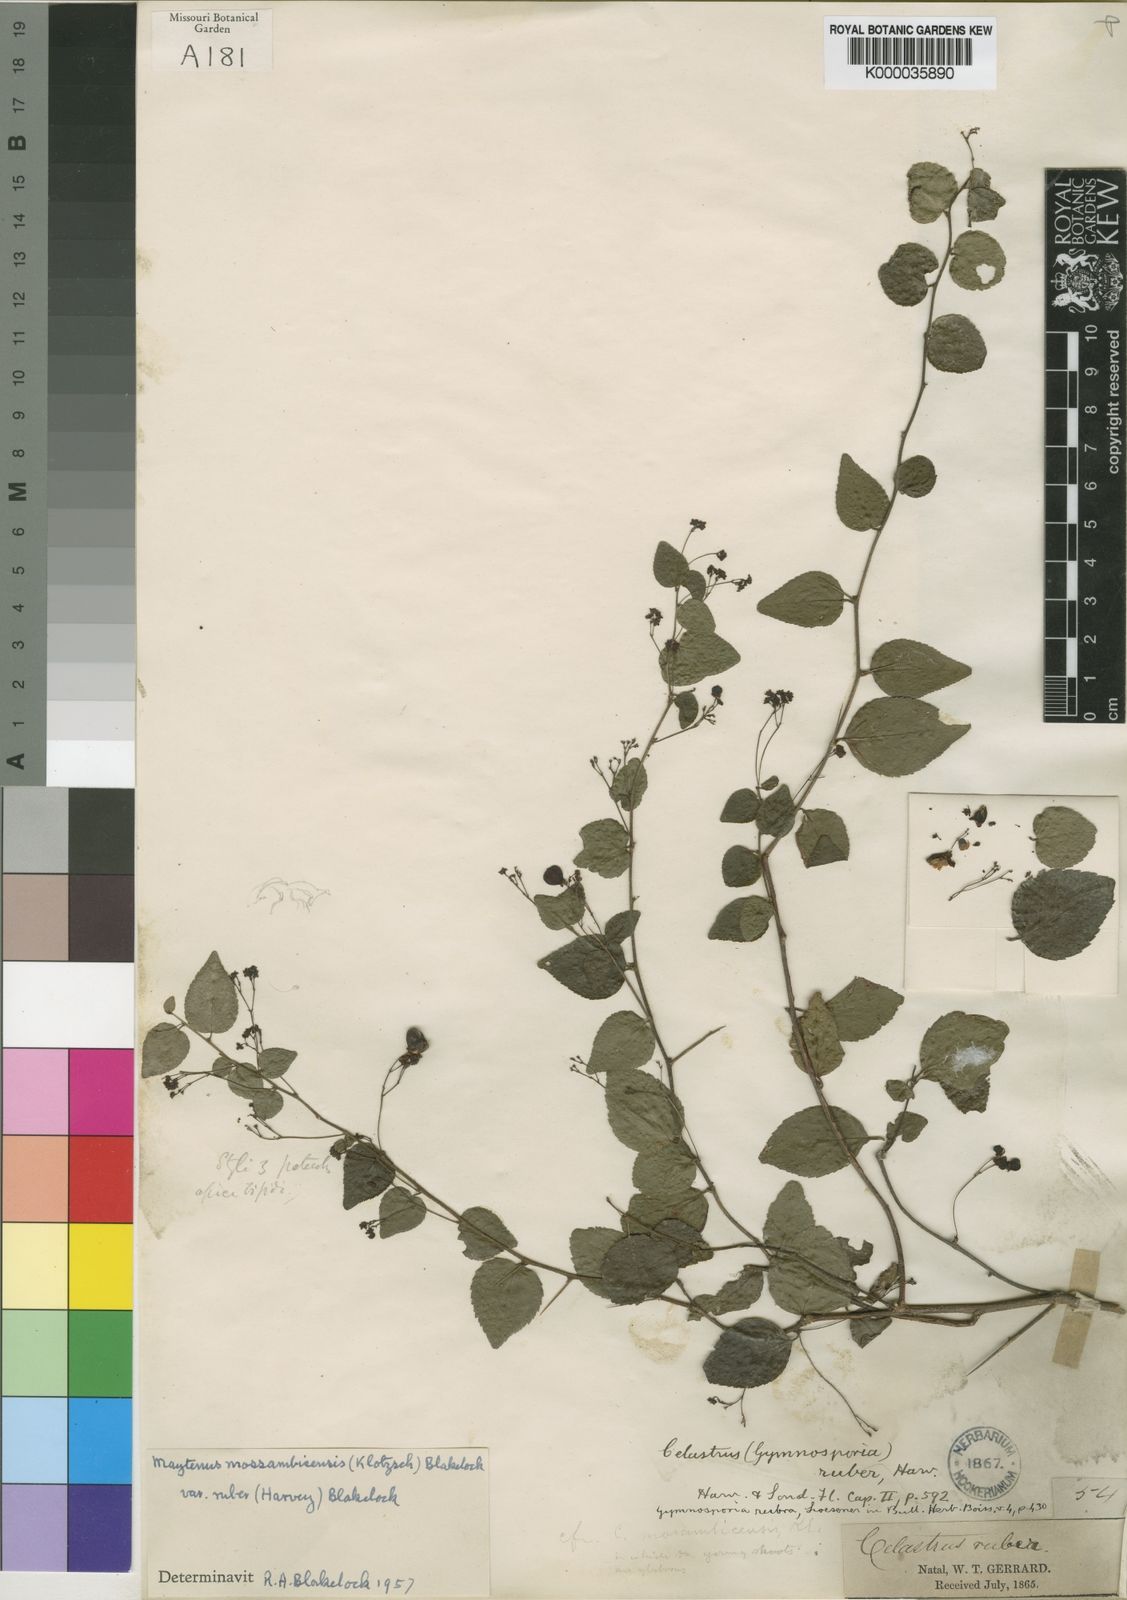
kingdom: Plantae
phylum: Tracheophyta
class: Magnoliopsida
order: Celastrales
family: Celastraceae
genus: Gymnosporia
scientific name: Gymnosporia mossambicensis
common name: Black forest spike-thorn
